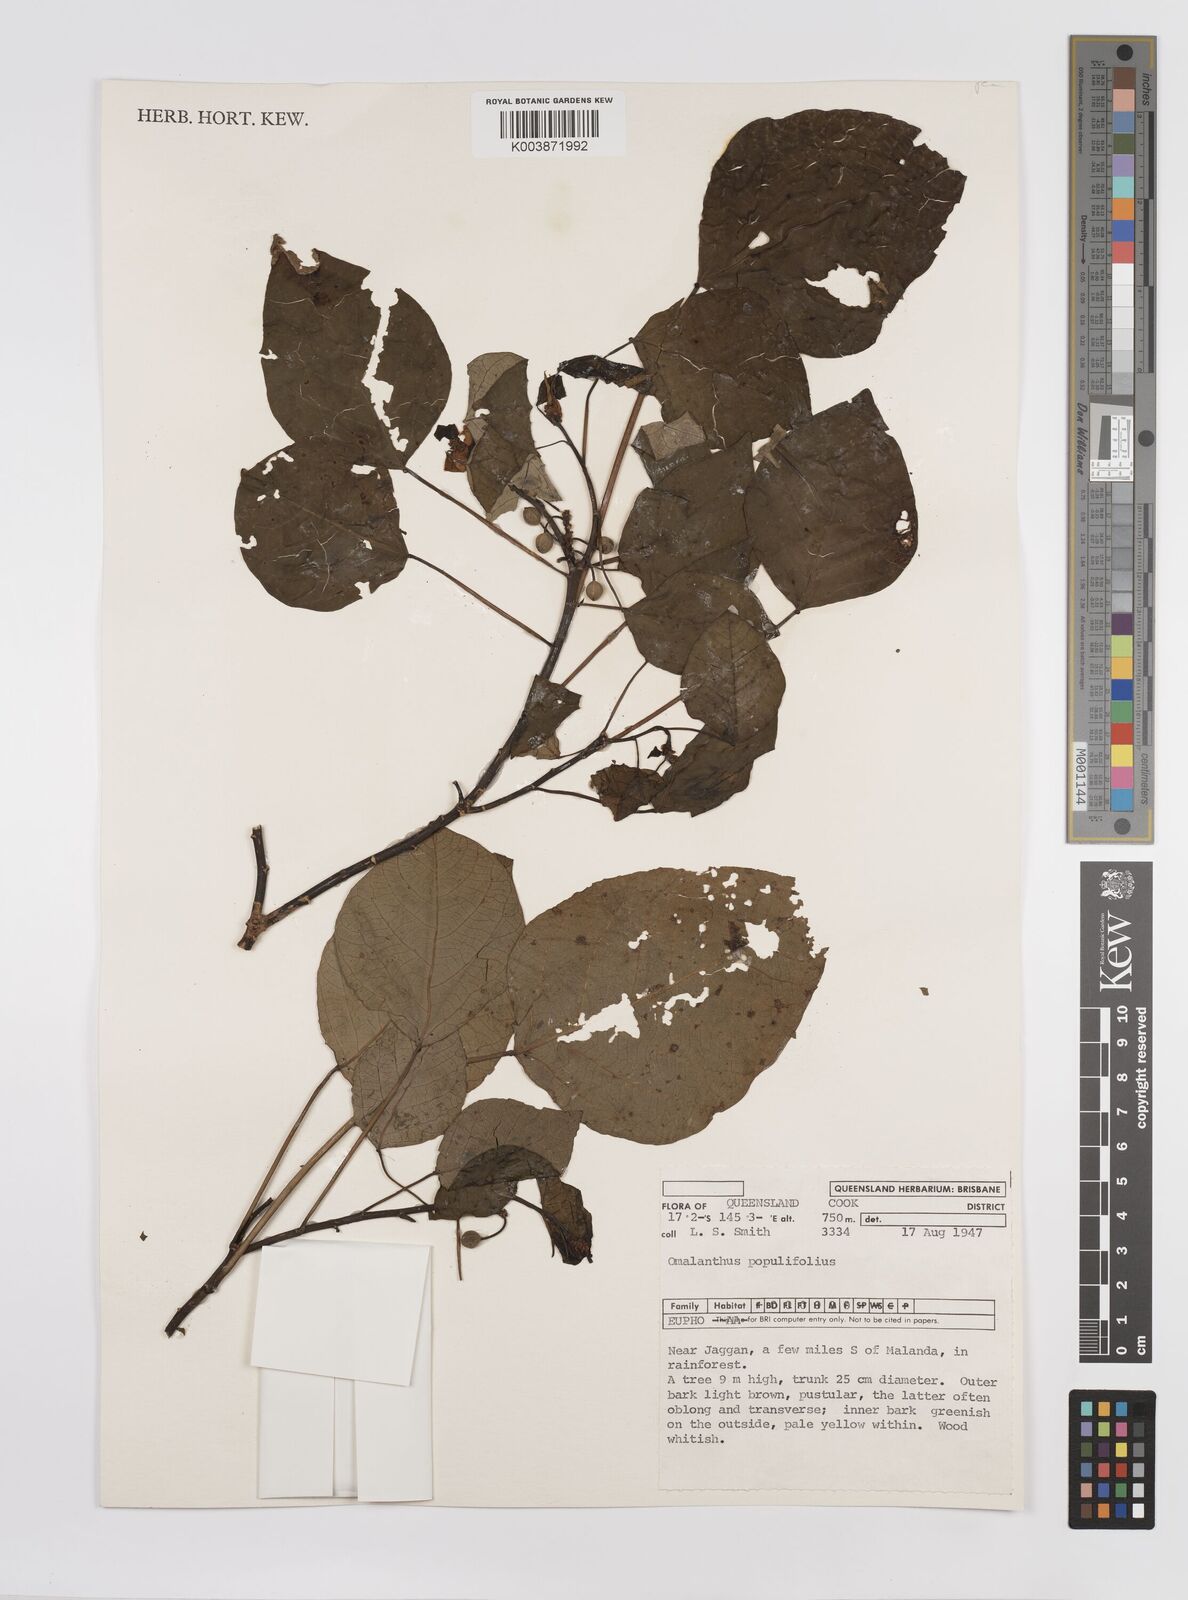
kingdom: Plantae
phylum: Tracheophyta
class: Magnoliopsida
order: Malpighiales
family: Euphorbiaceae
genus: Homalanthus
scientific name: Homalanthus novoguineensis
